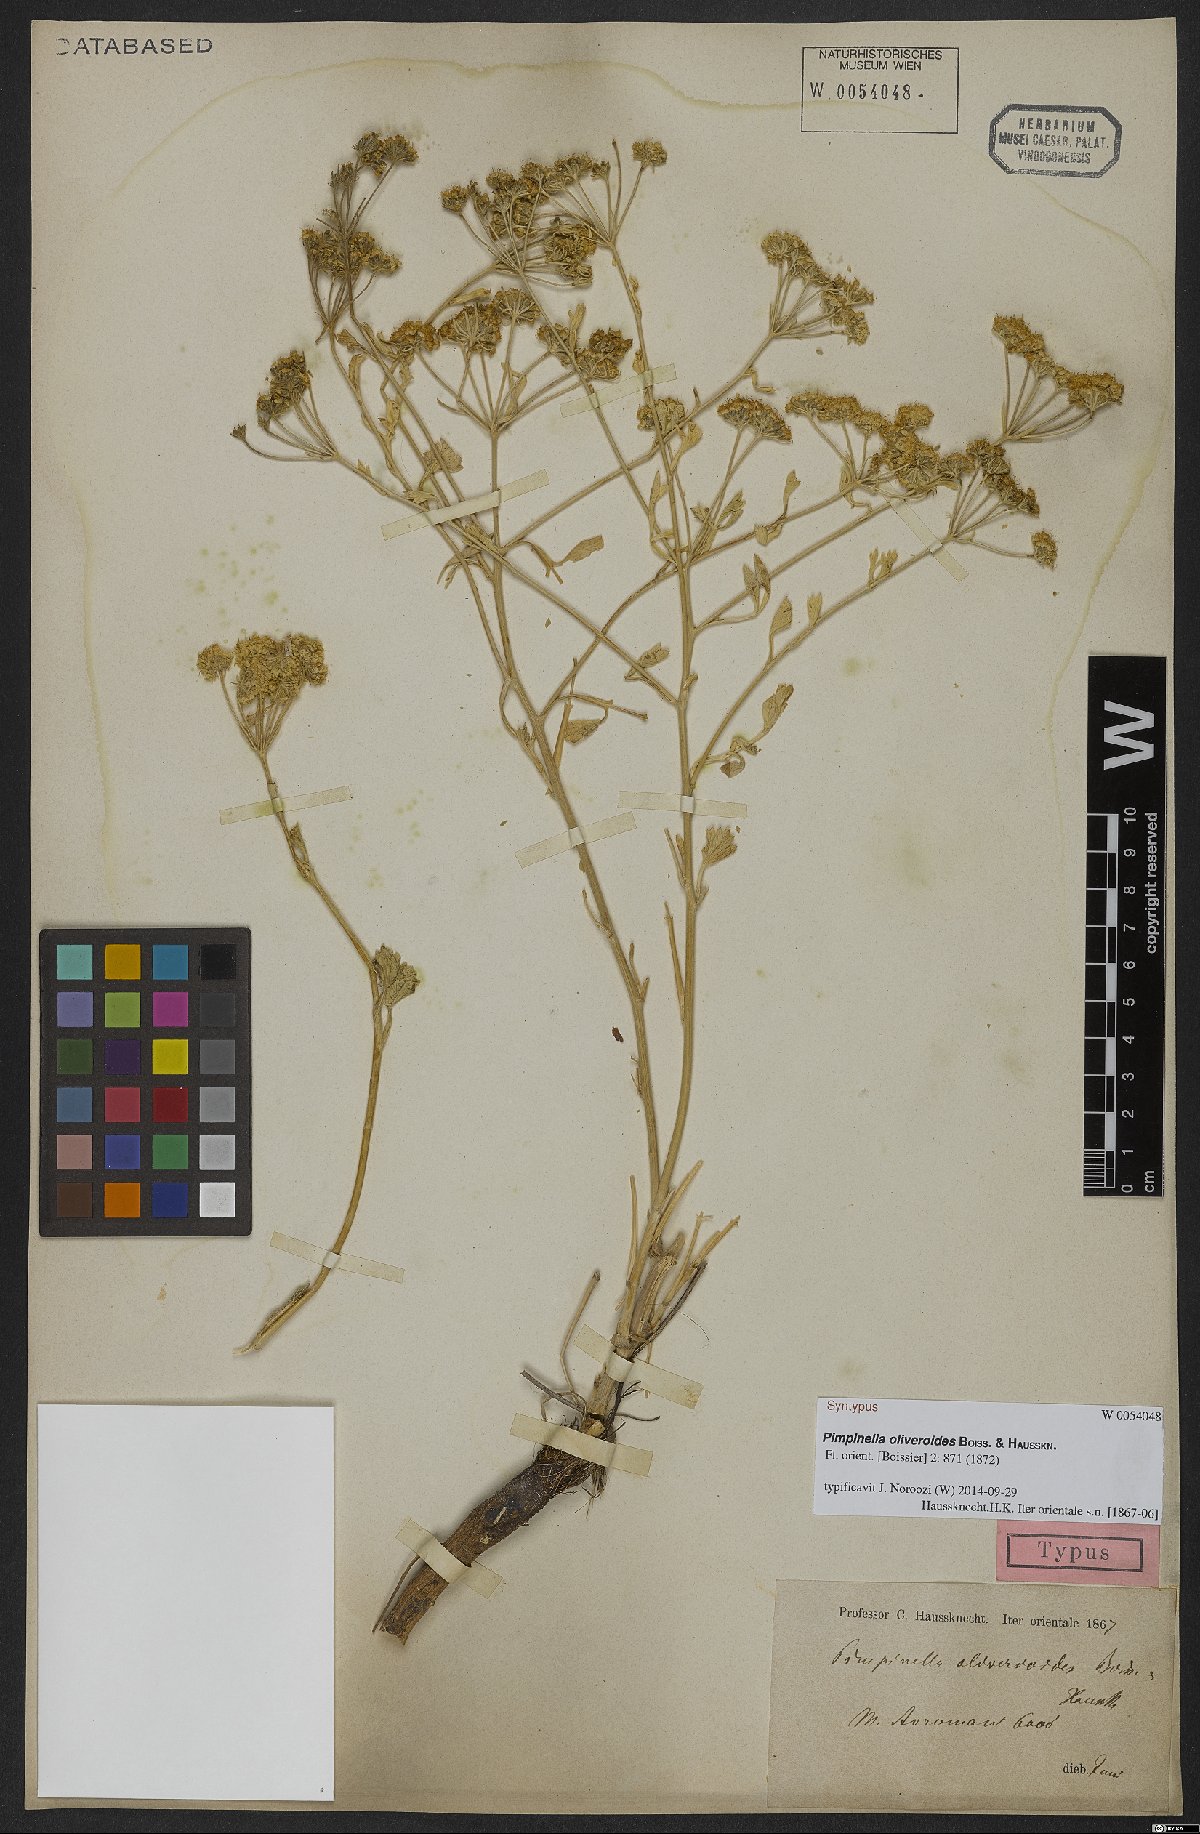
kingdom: Plantae
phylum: Tracheophyta
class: Magnoliopsida
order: Apiales
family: Apiaceae
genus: Pimpinella
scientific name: Pimpinella
